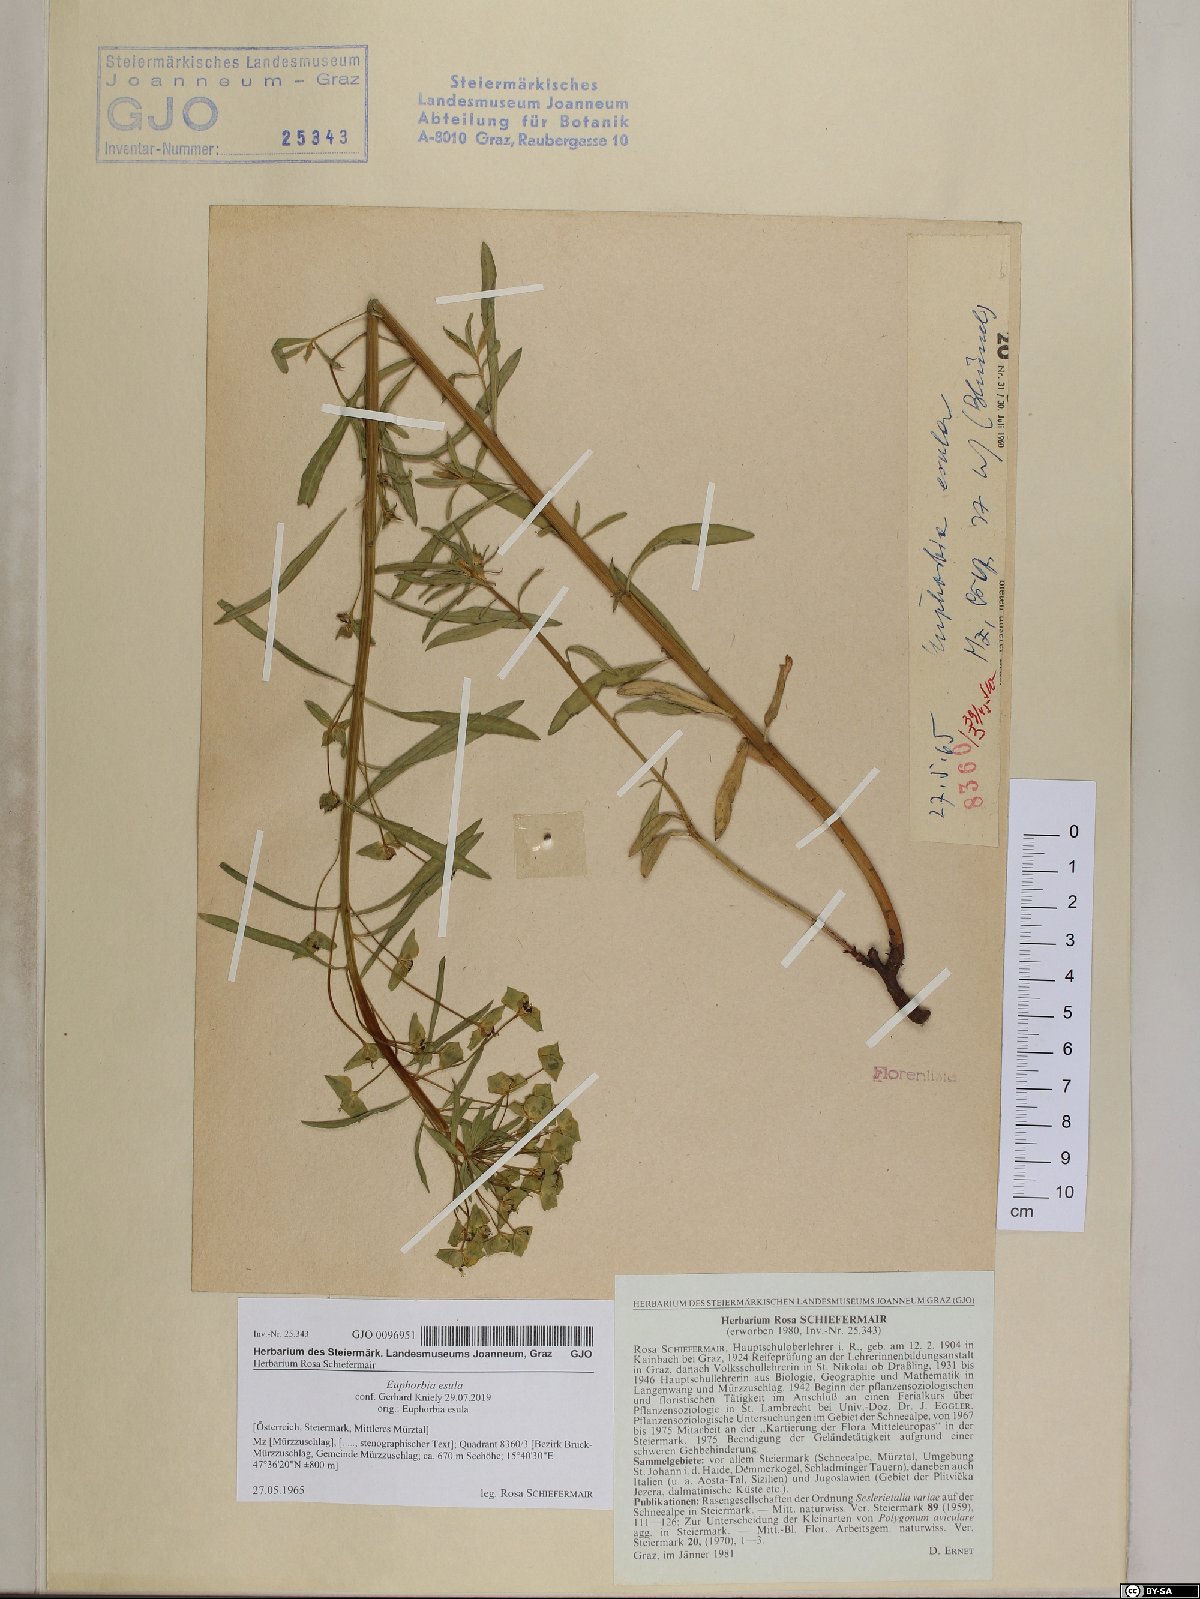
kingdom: Plantae
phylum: Tracheophyta
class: Magnoliopsida
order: Malpighiales
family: Euphorbiaceae
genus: Euphorbia
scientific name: Euphorbia esula
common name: Leafy spurge
